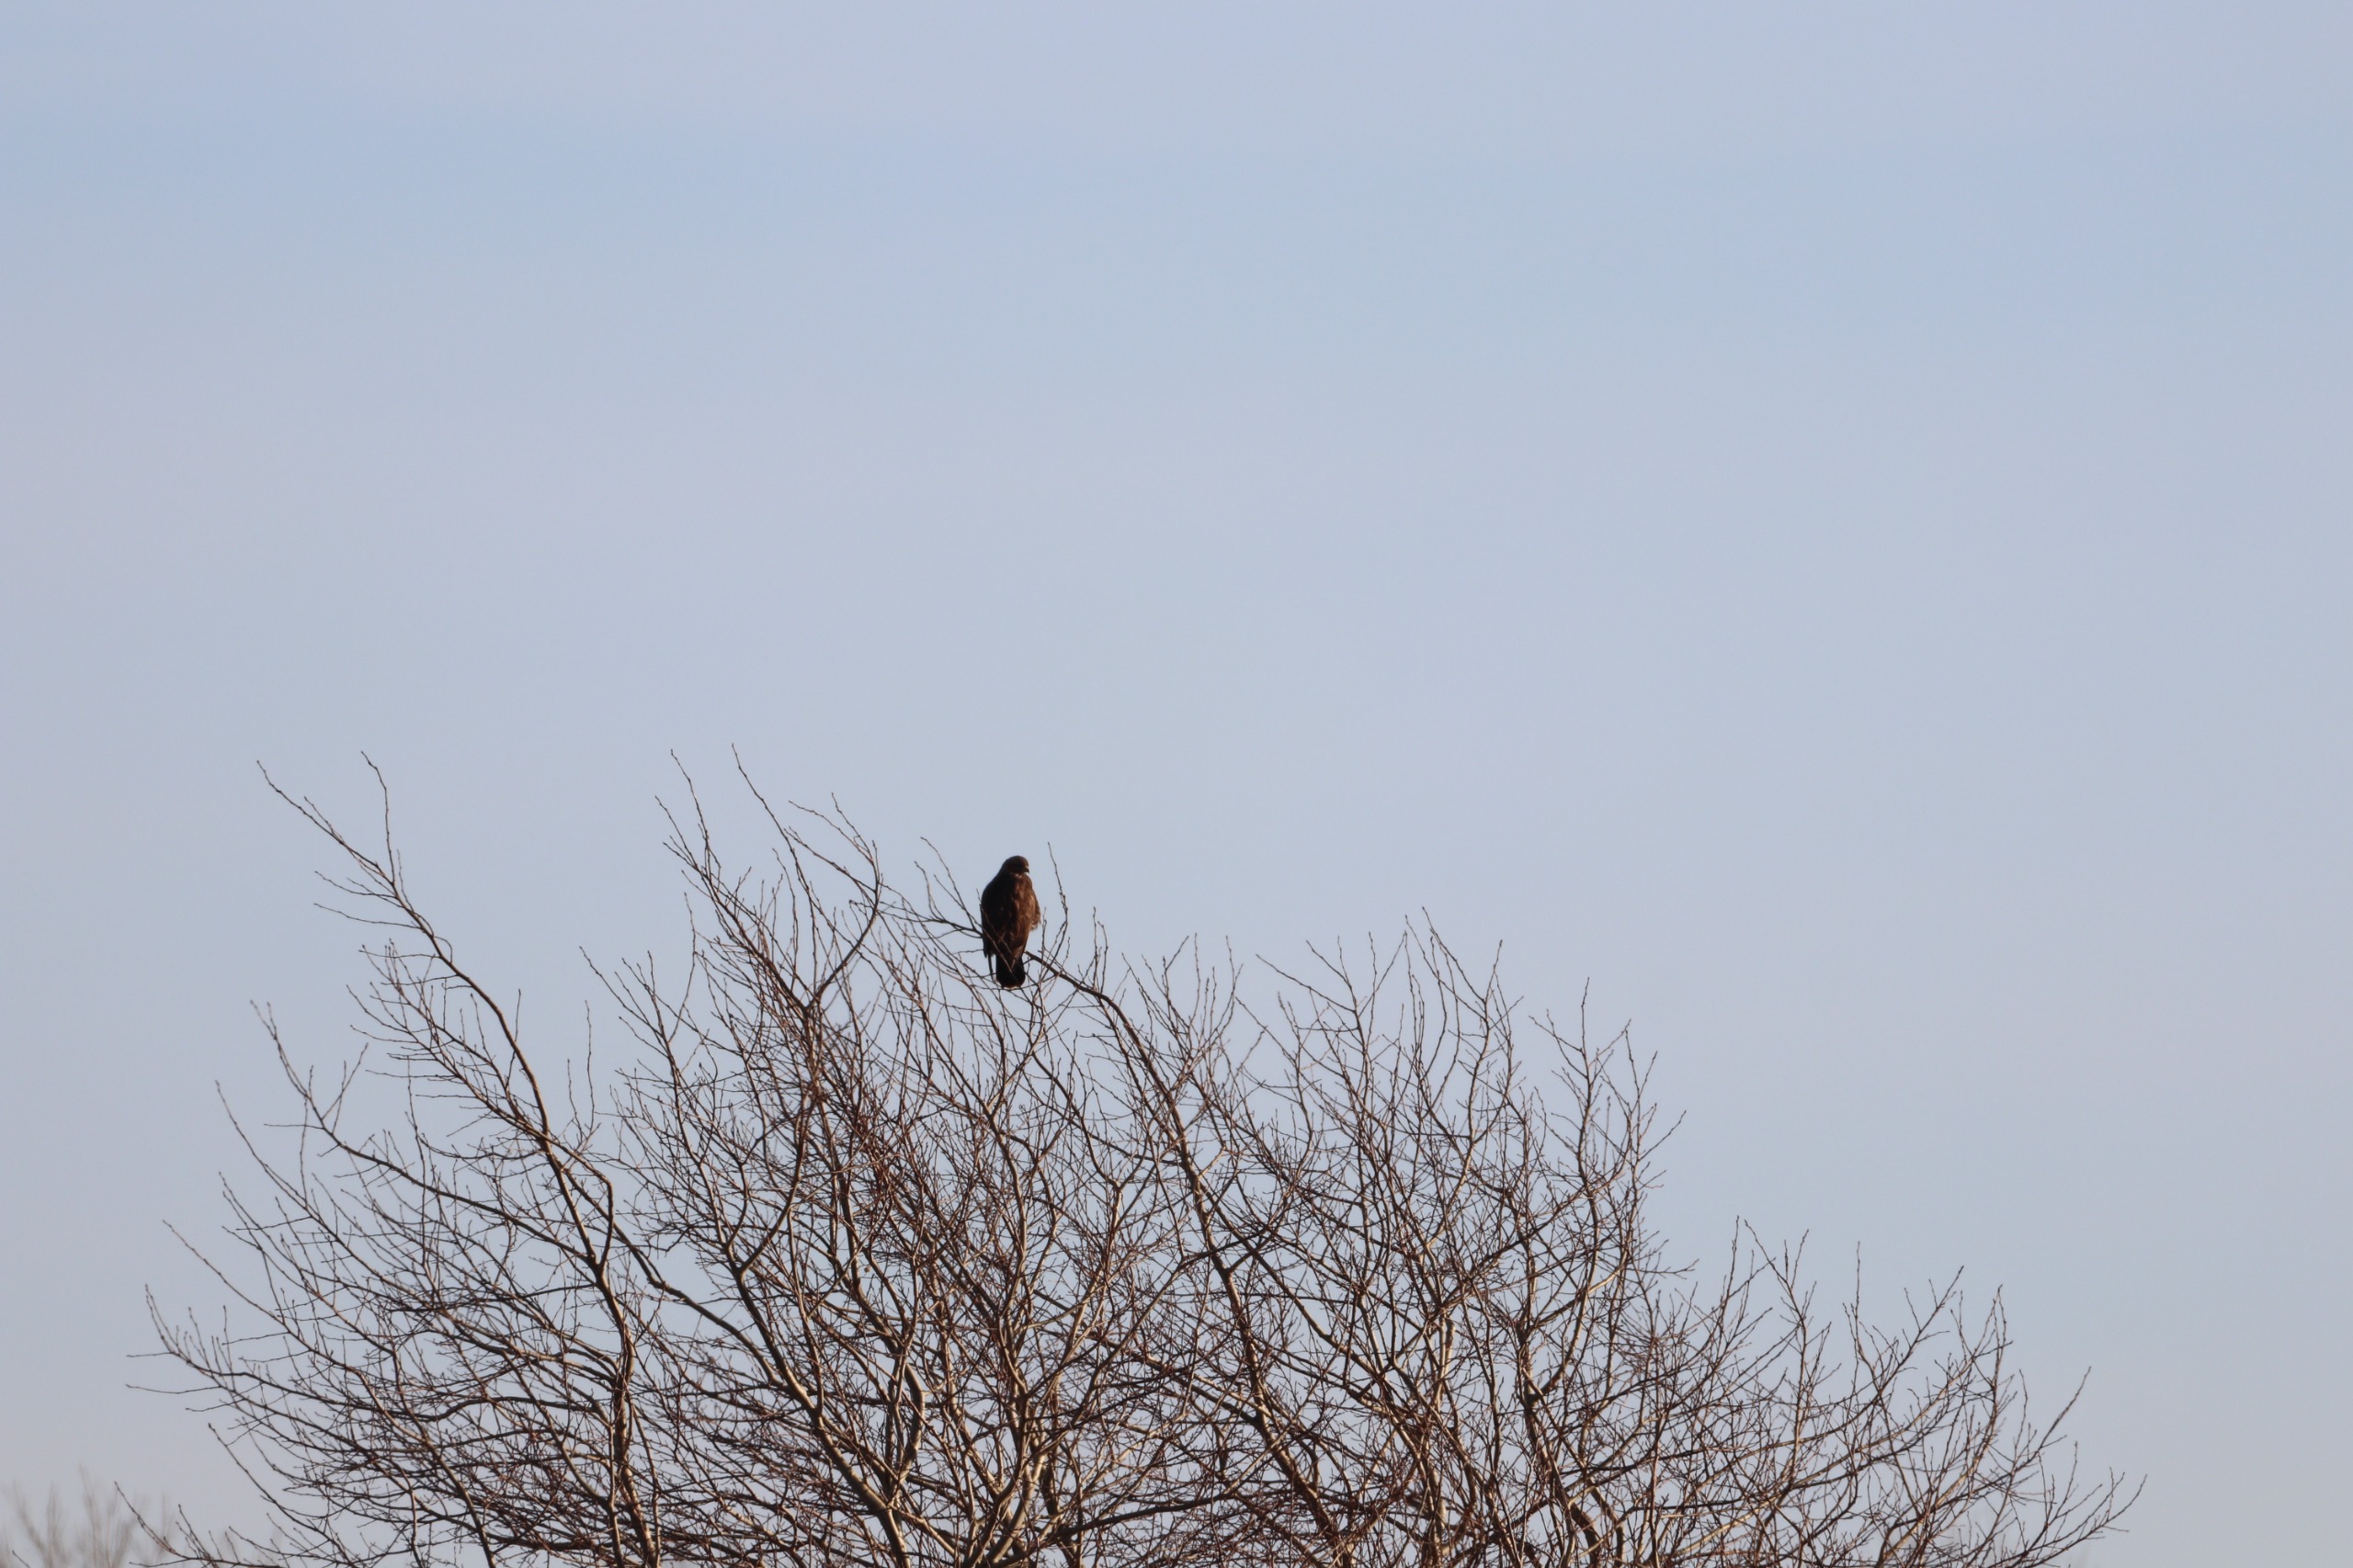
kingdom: Animalia
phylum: Chordata
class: Aves
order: Accipitriformes
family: Accipitridae
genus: Buteo
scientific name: Buteo buteo
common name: Musvåge
